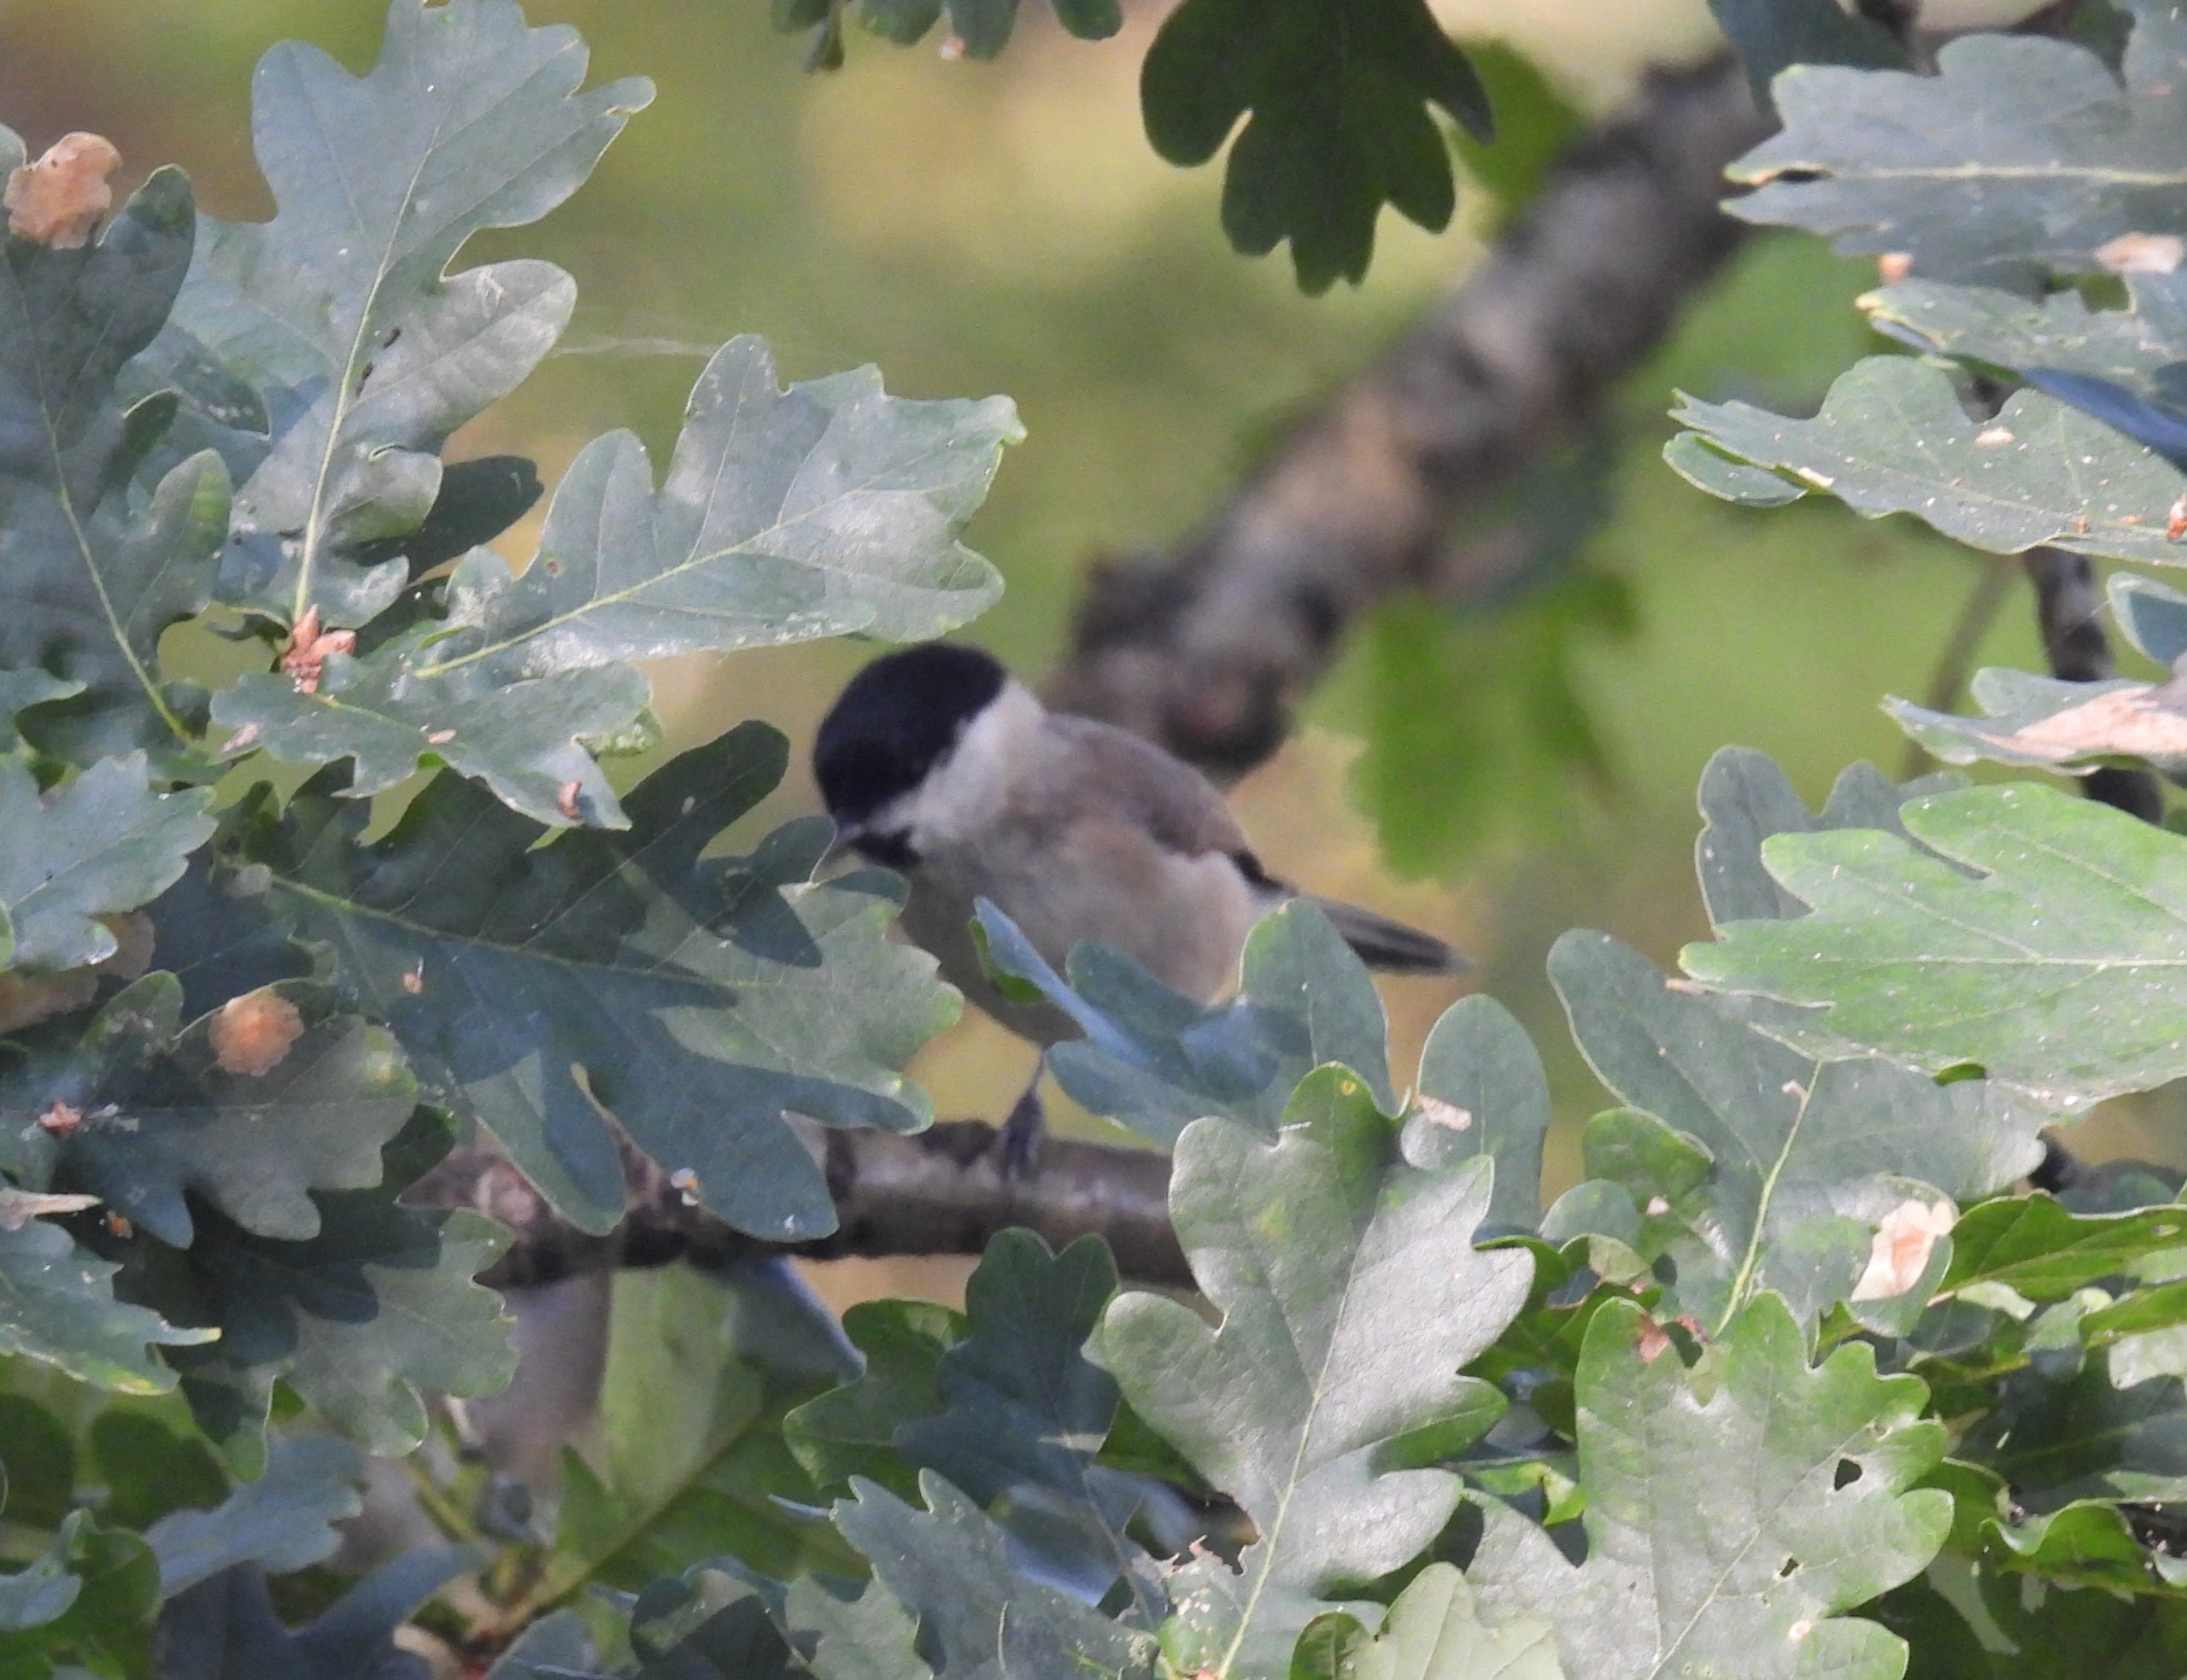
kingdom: Animalia
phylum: Chordata
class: Aves
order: Passeriformes
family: Paridae
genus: Poecile
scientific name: Poecile palustris
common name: Sumpmejse
